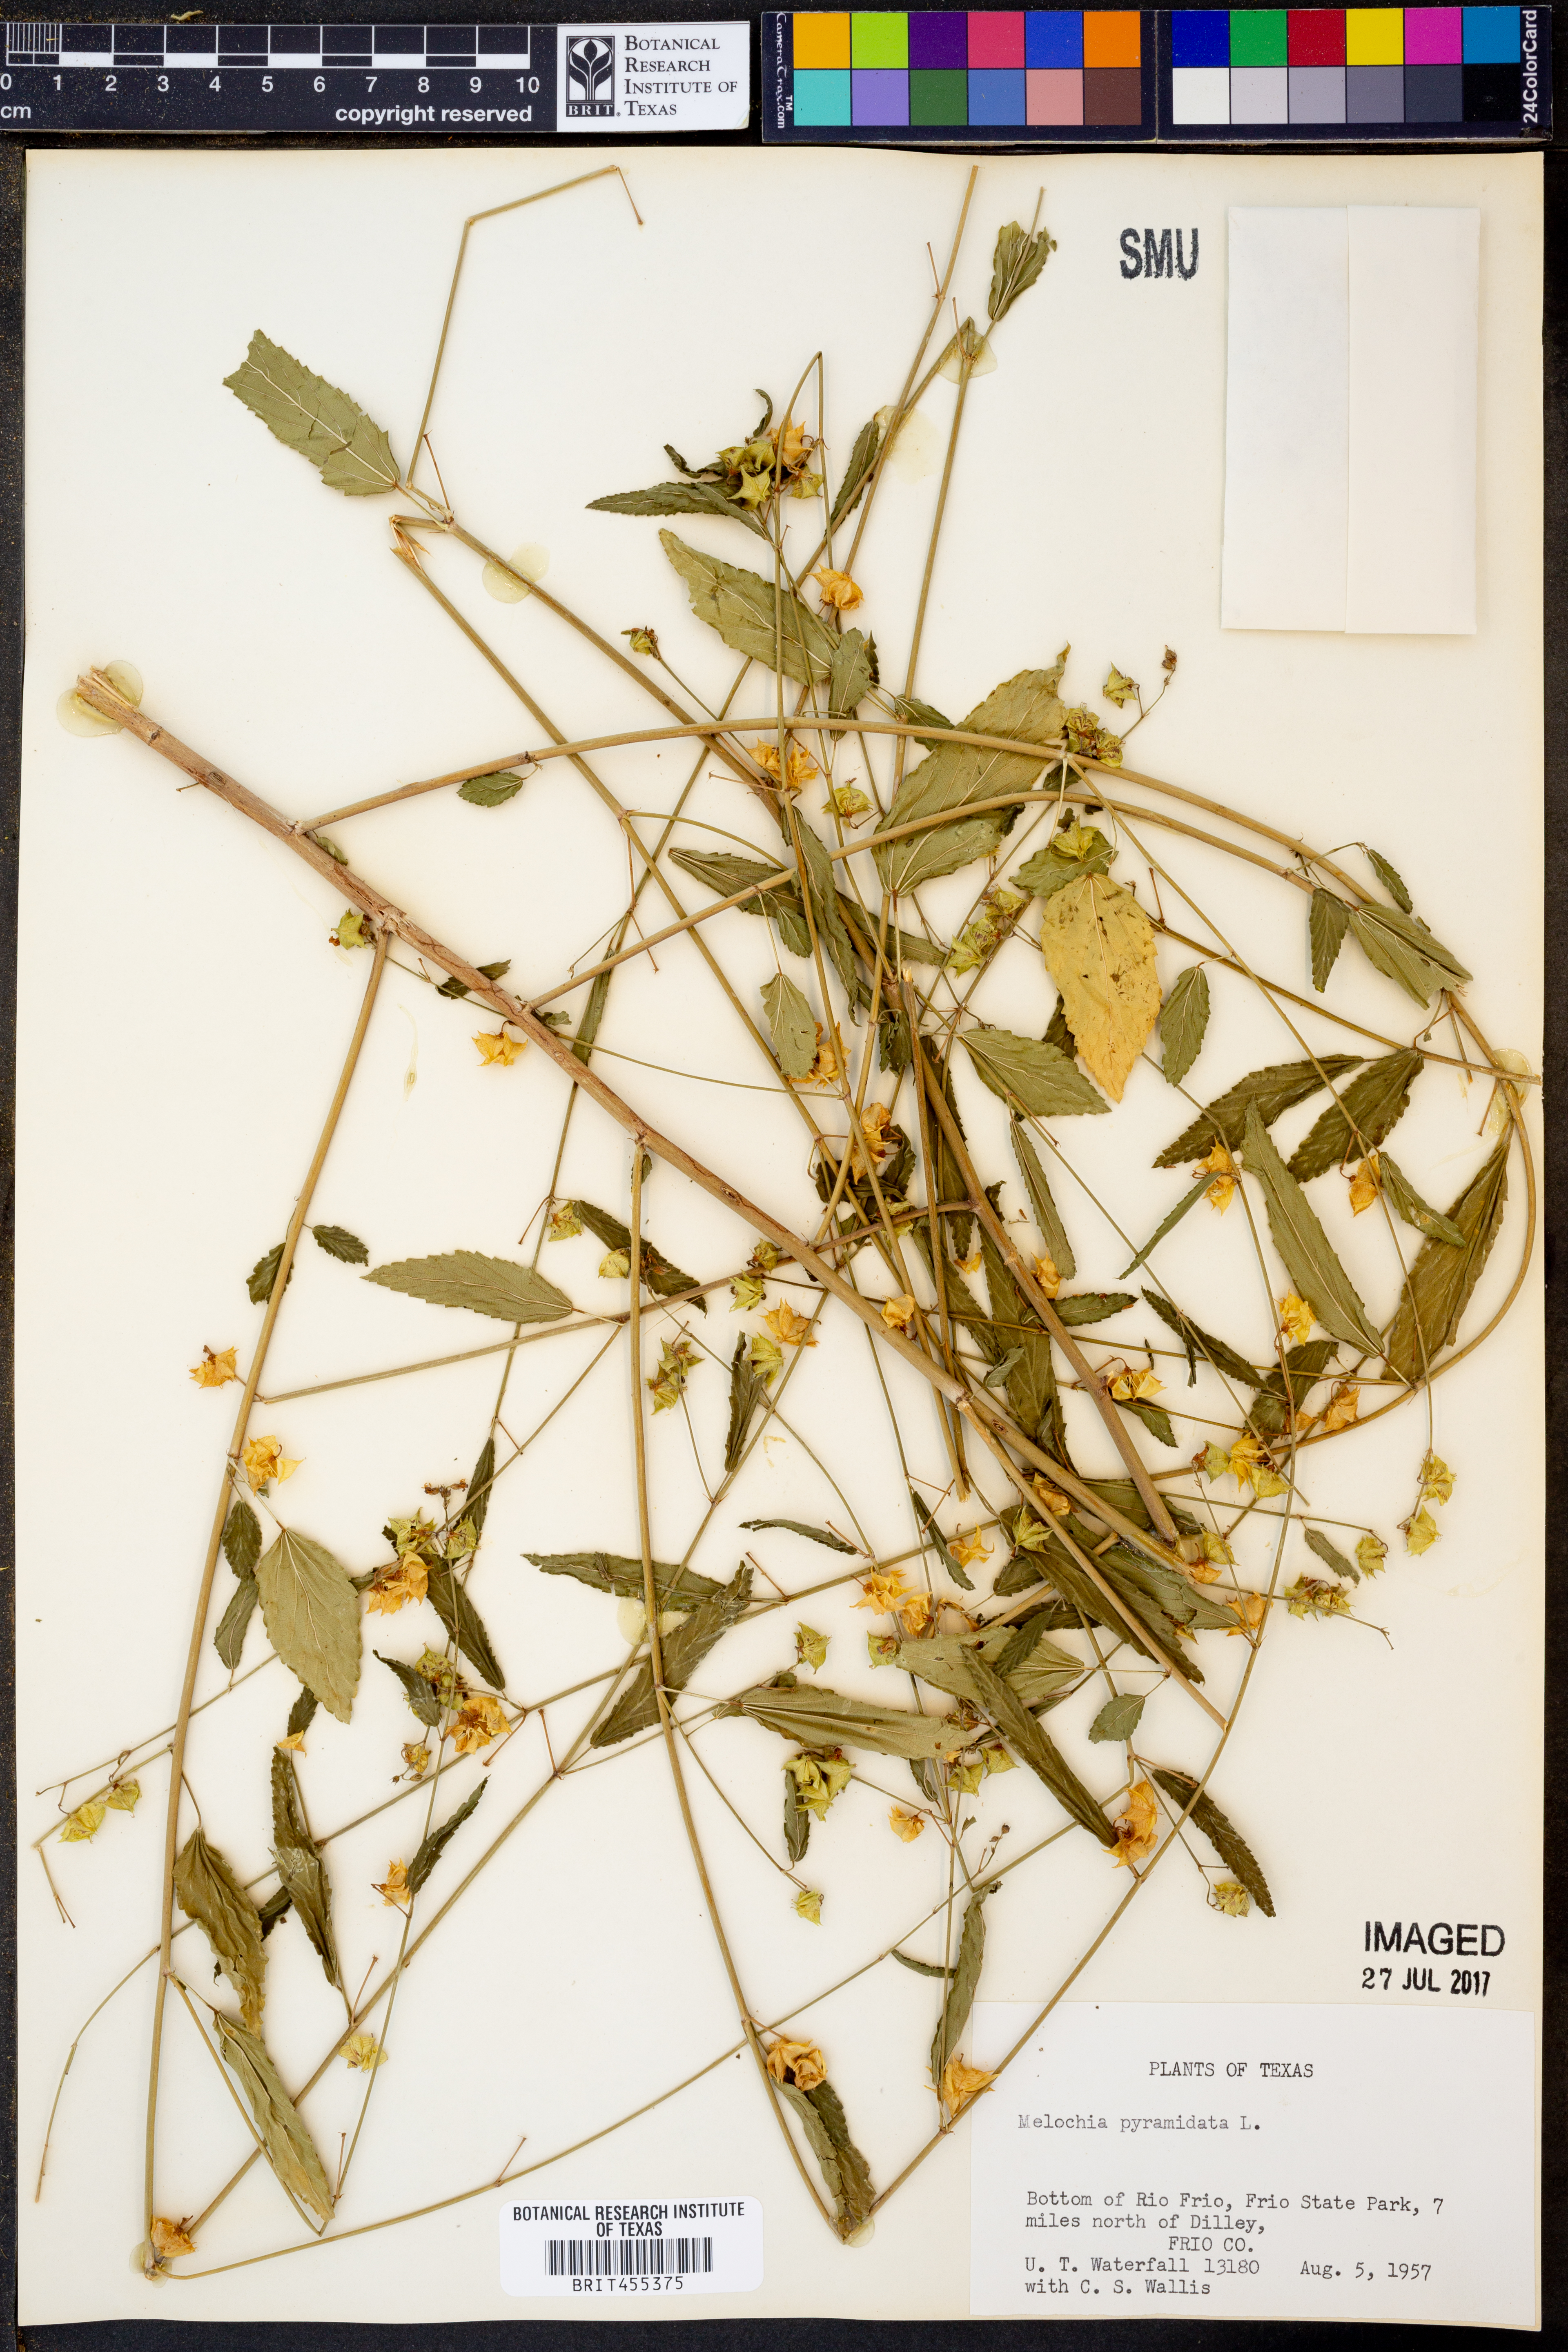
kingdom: Plantae
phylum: Tracheophyta
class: Magnoliopsida
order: Malvales
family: Malvaceae
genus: Melochia
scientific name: Melochia pyramidata
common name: Pyramidflower
